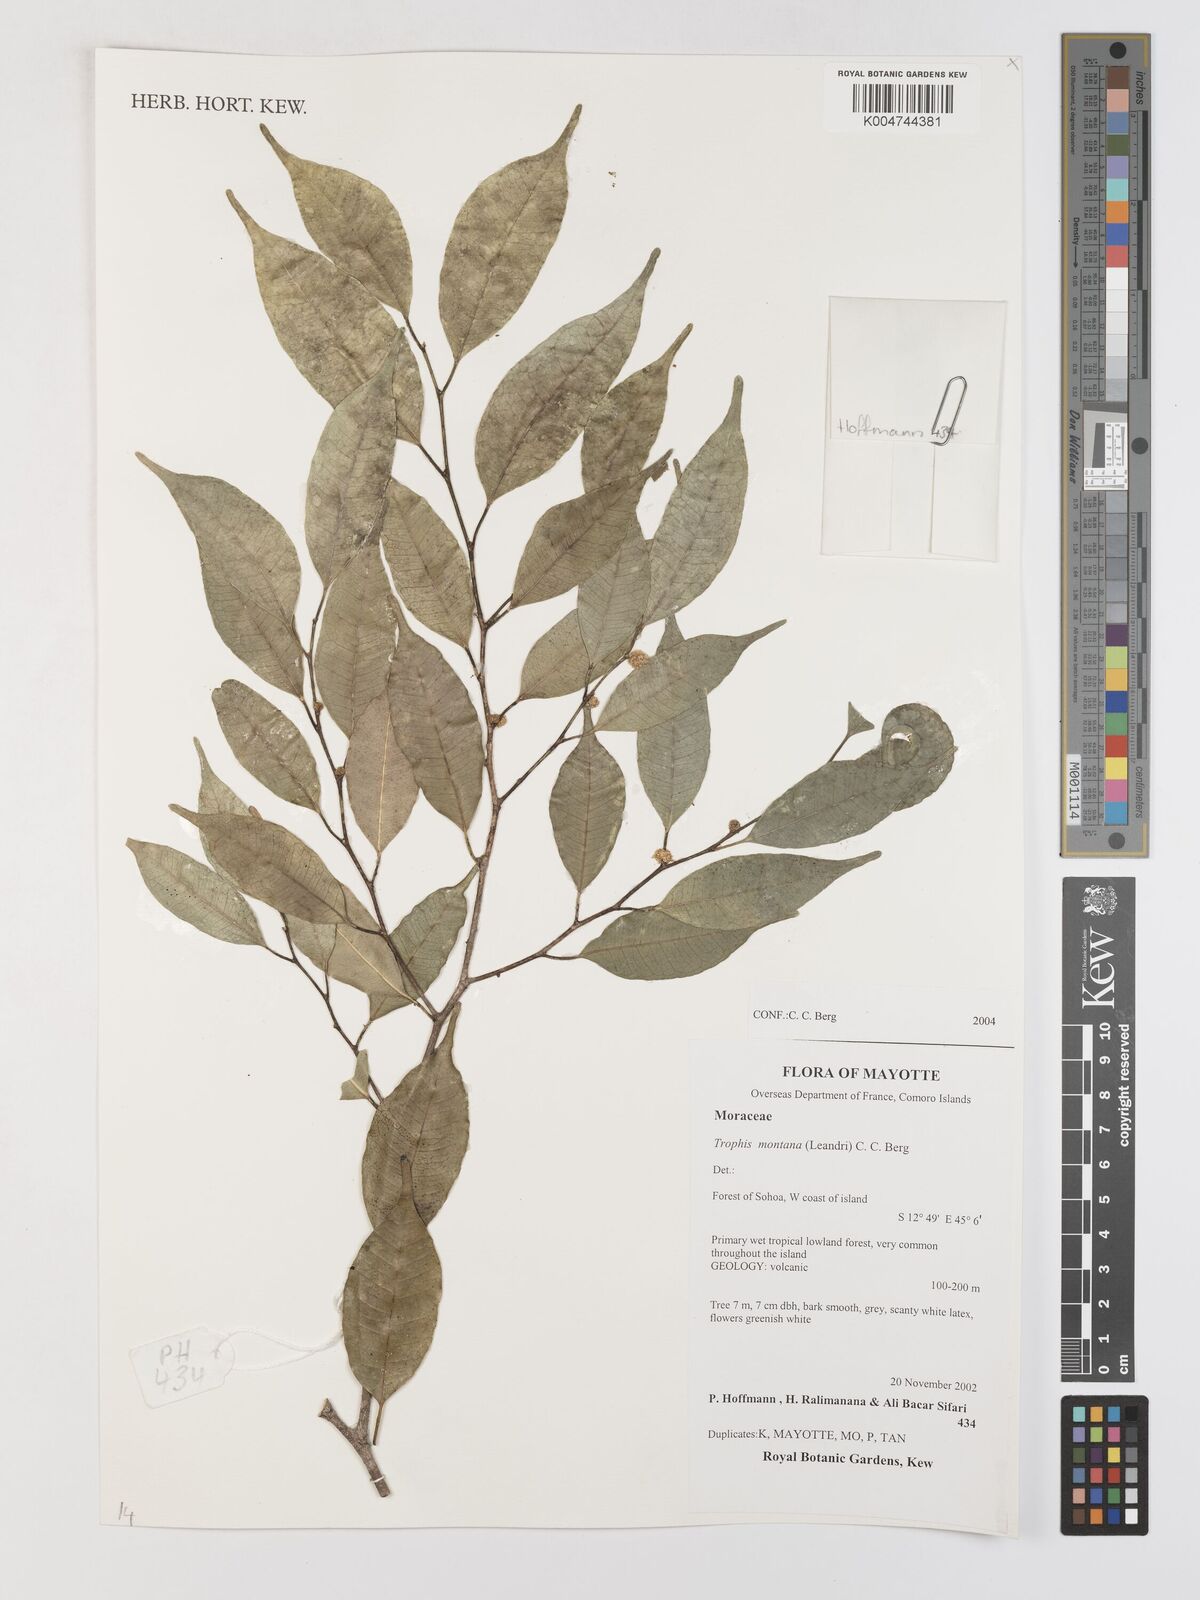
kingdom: Plantae
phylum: Tracheophyta
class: Magnoliopsida
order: Rosales
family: Moraceae
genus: Maillardia
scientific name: Maillardia montana
